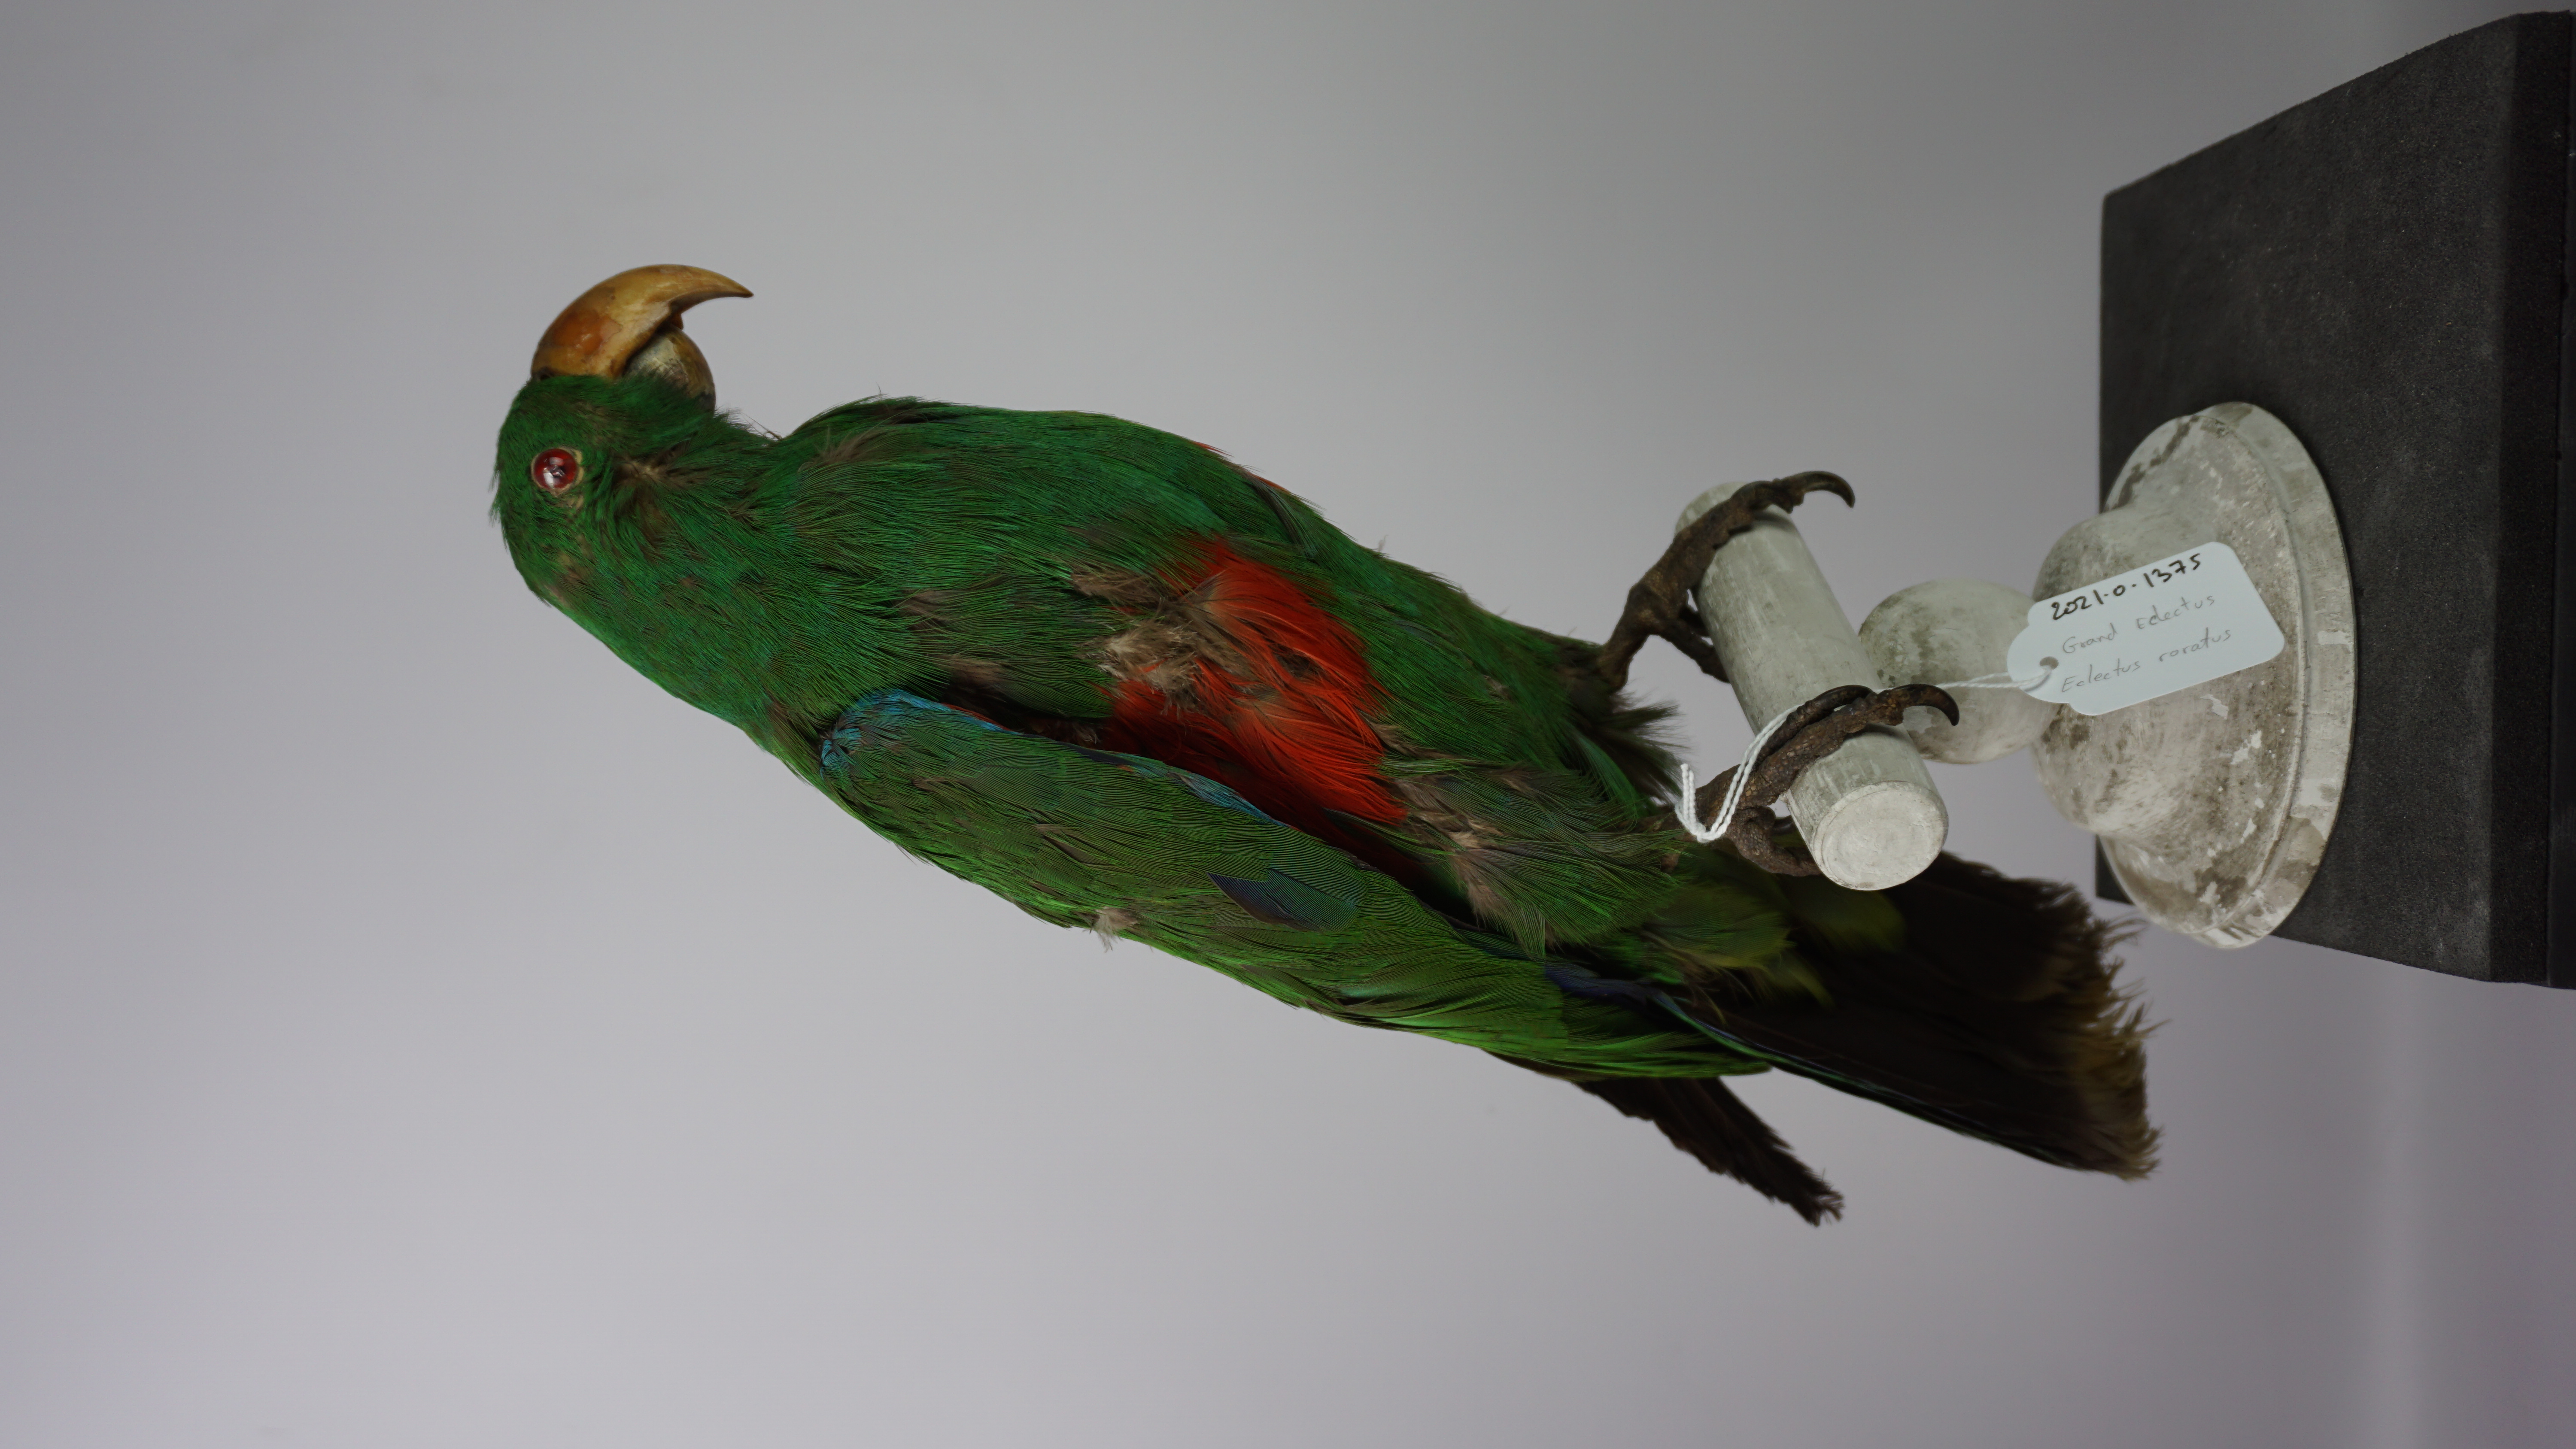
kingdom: Animalia
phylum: Chordata
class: Aves
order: Psittaciformes
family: Psittacidae
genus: Eclectus
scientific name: Eclectus roratus
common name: Eclectus parrot
